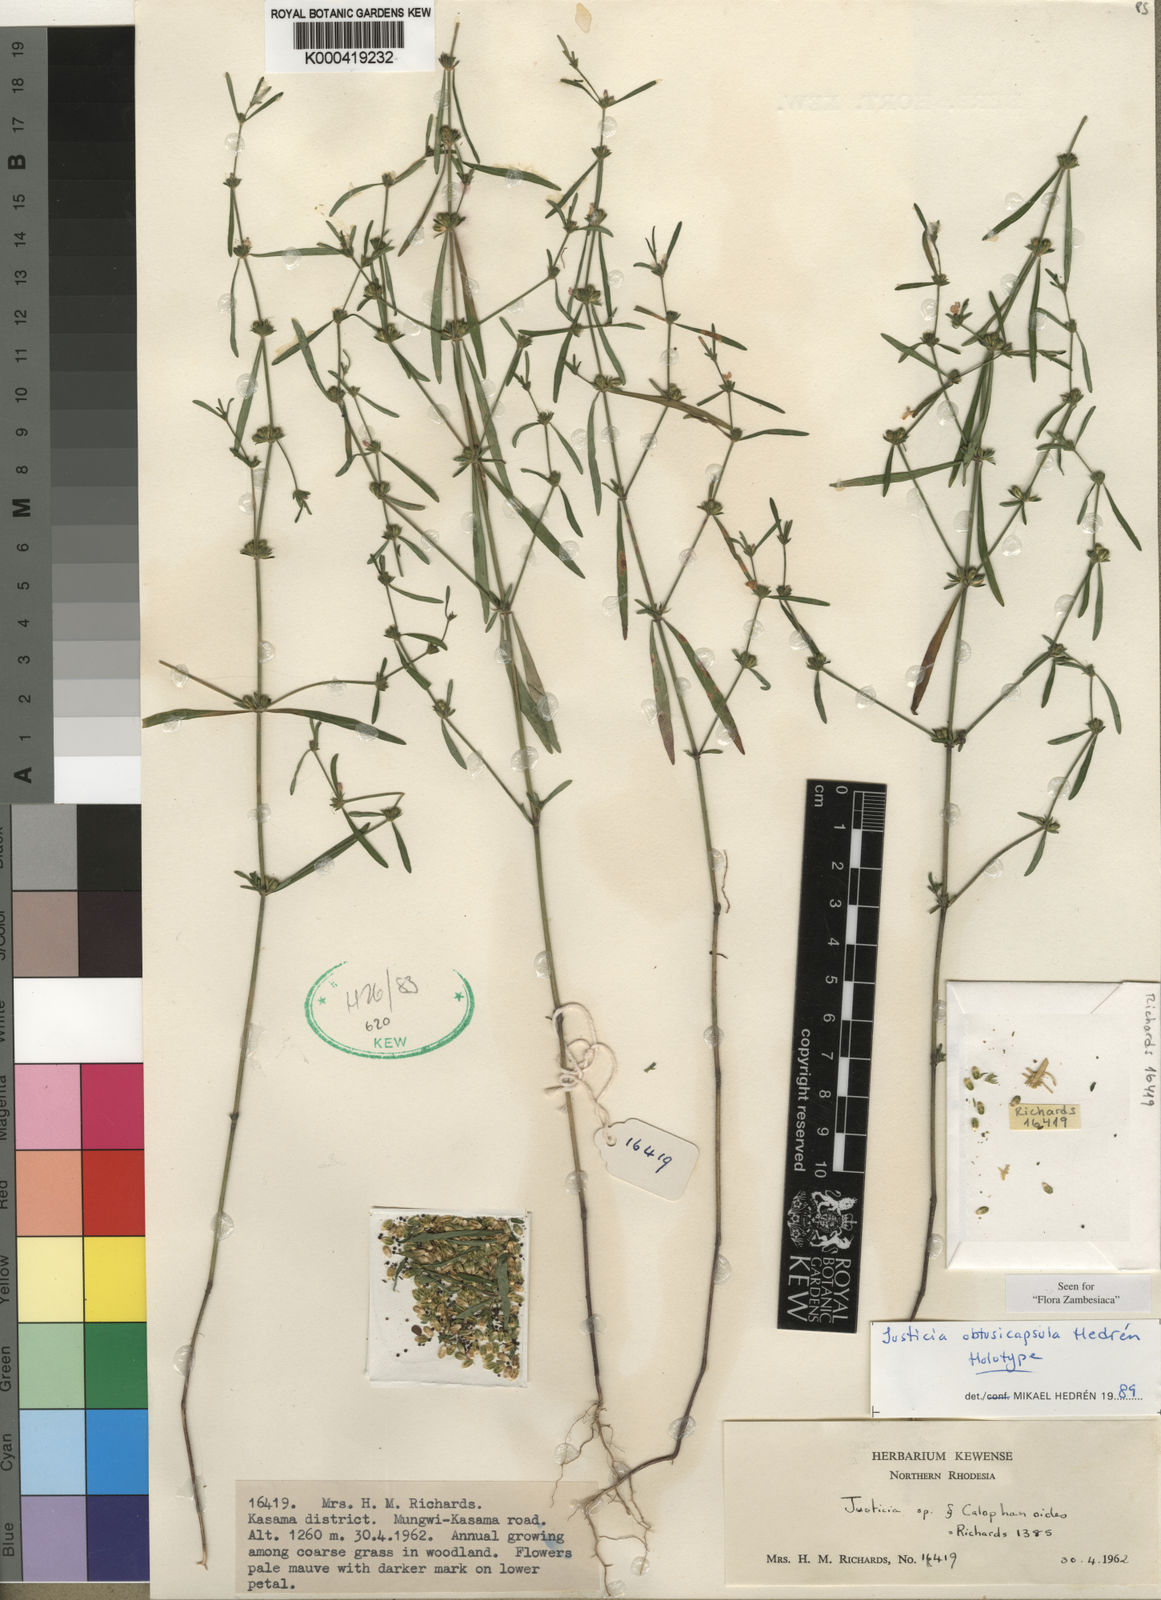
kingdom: Plantae
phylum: Tracheophyta
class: Magnoliopsida
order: Lamiales
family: Acanthaceae
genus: Justicia
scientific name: Justicia
